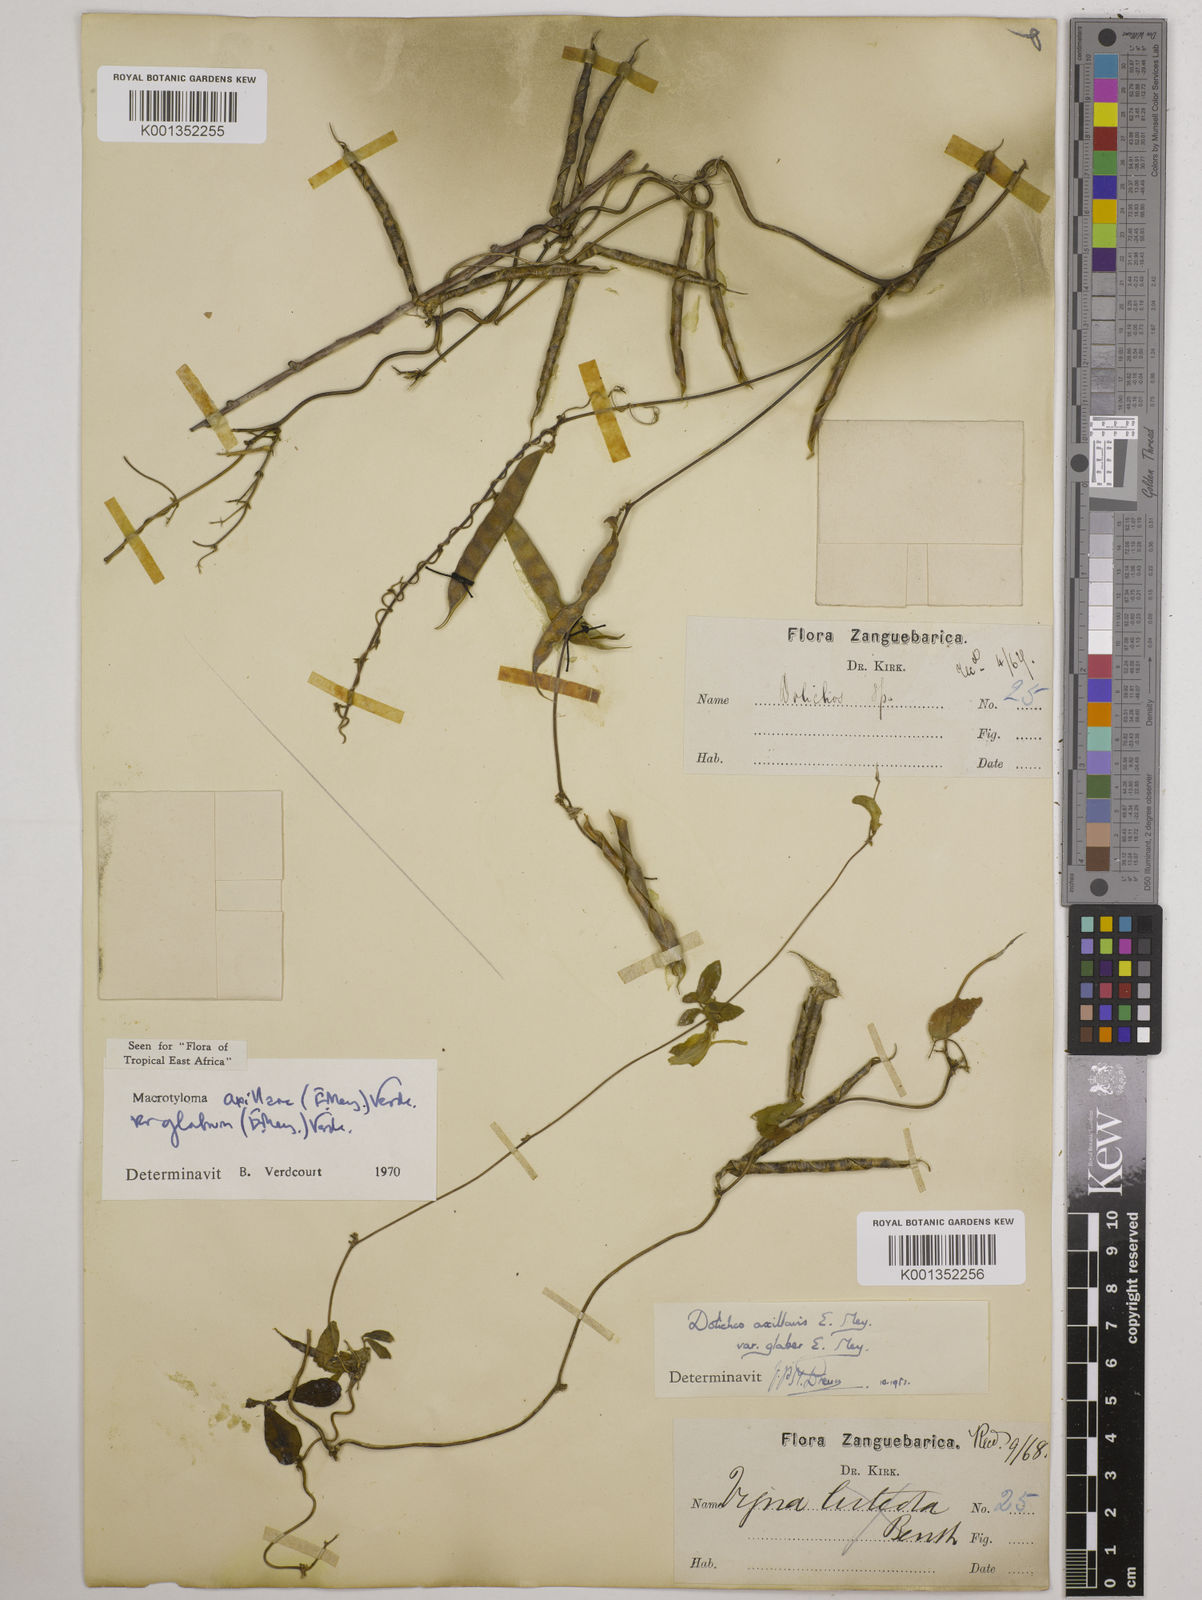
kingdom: Plantae
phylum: Tracheophyta
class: Magnoliopsida
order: Fabales
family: Fabaceae
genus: Macrotyloma
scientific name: Macrotyloma
